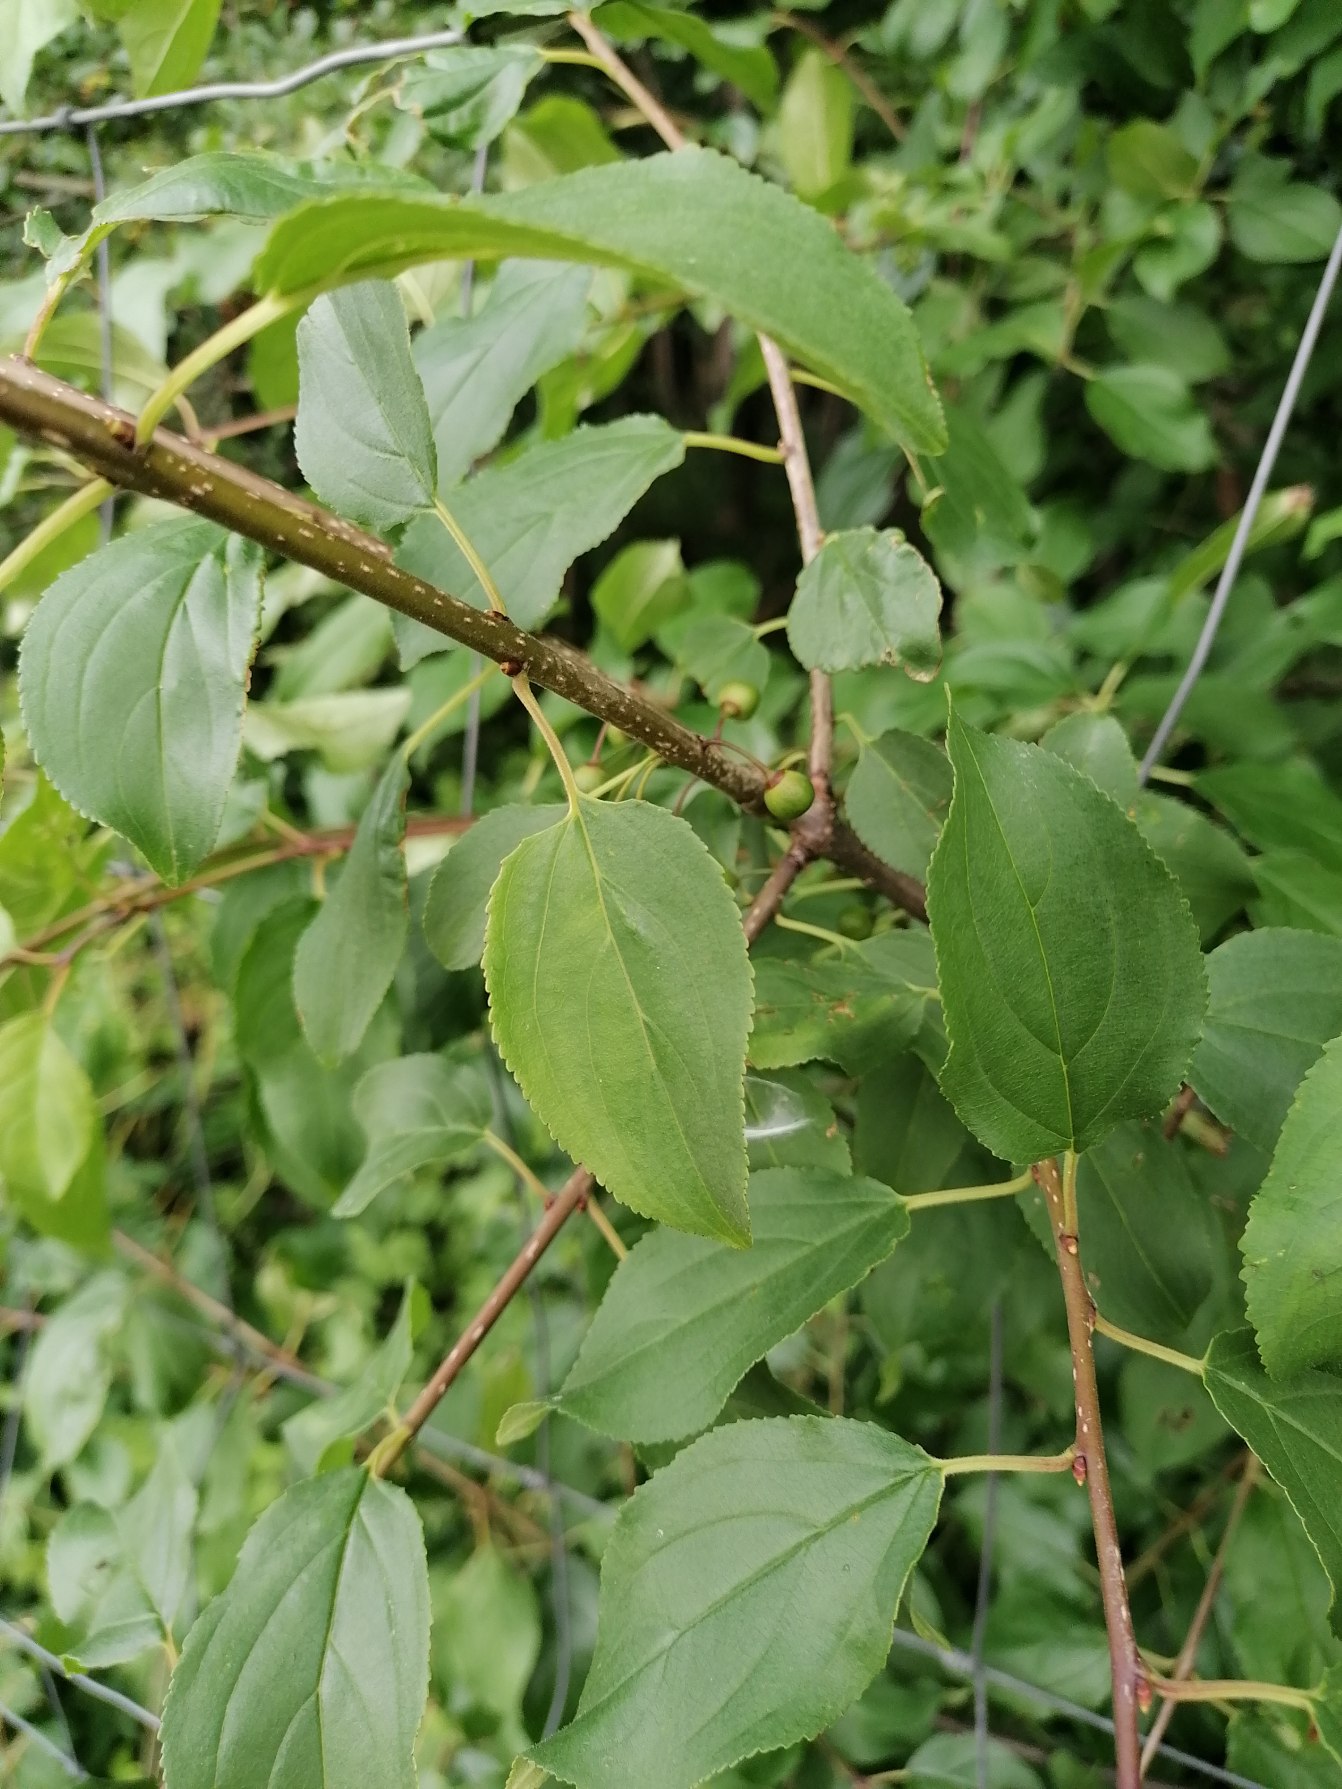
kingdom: Plantae
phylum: Tracheophyta
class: Magnoliopsida
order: Rosales
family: Rhamnaceae
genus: Rhamnus
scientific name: Rhamnus cathartica
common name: Vrietorn
